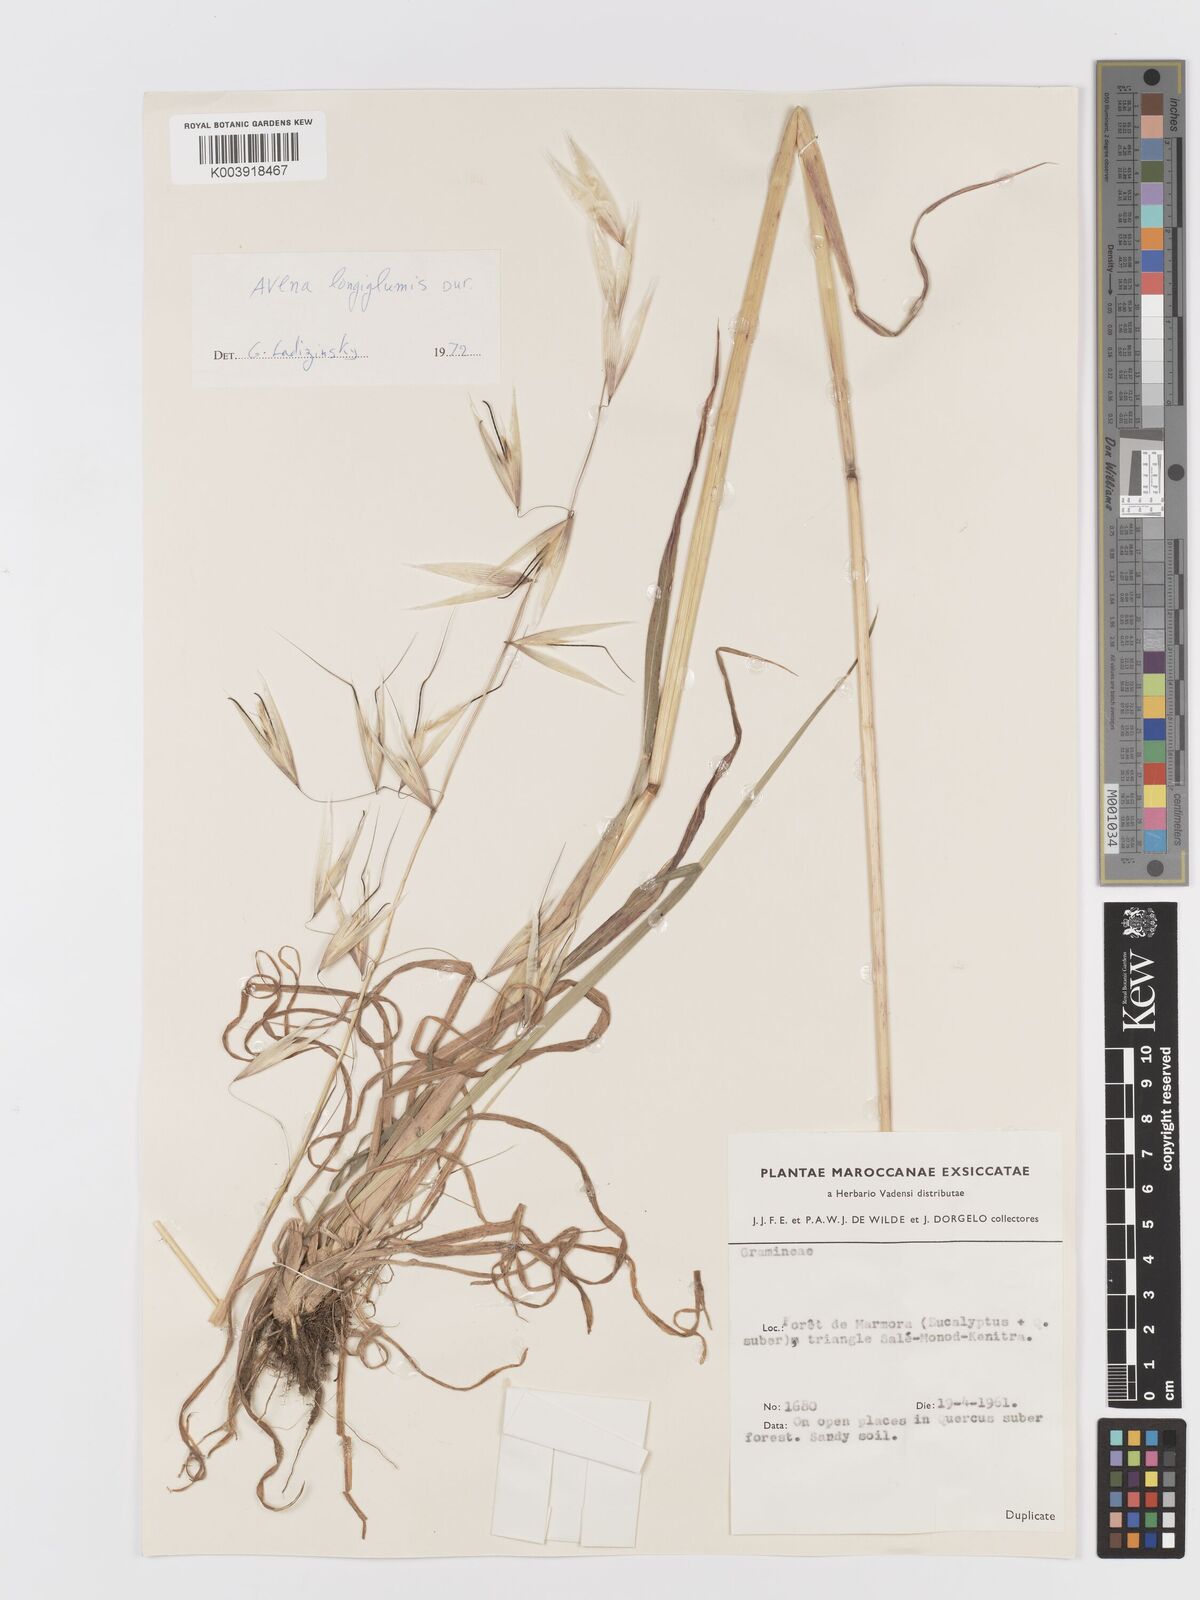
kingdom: Plantae
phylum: Tracheophyta
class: Liliopsida
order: Poales
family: Poaceae
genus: Avena
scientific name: Avena longiglumis
